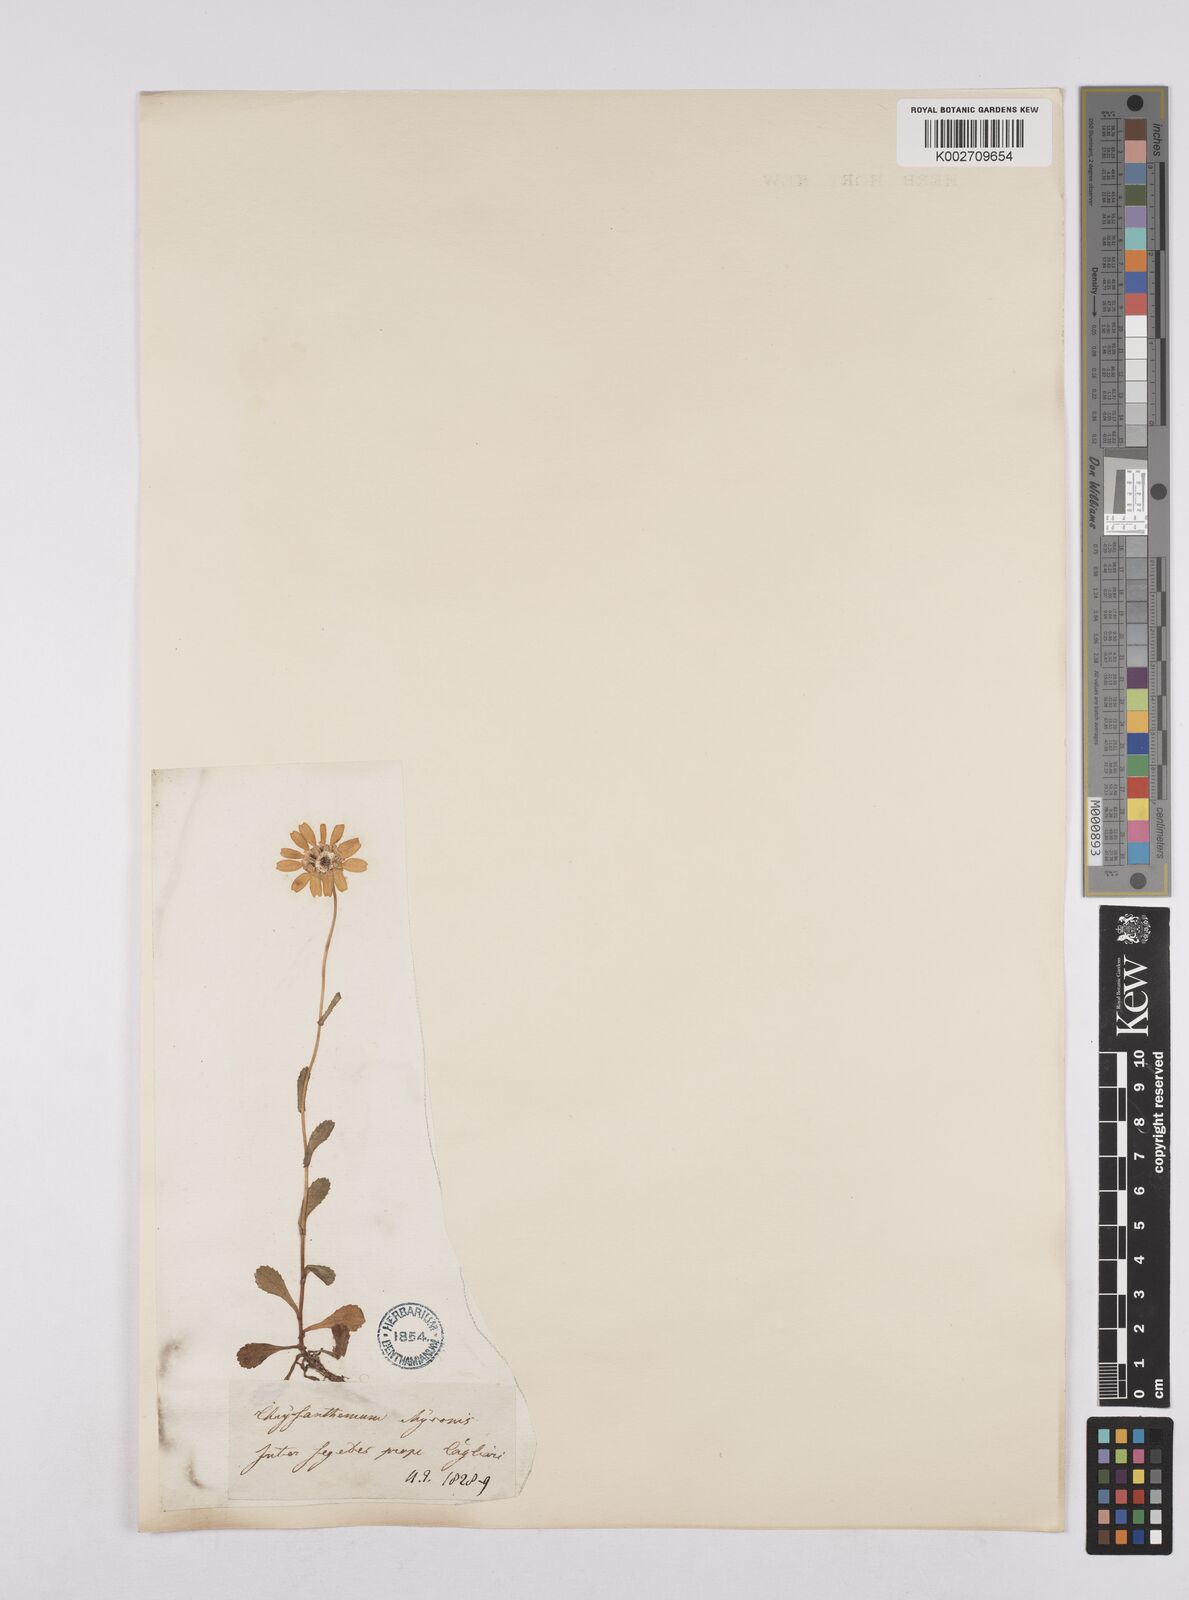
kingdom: Plantae
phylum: Tracheophyta
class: Magnoliopsida
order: Asterales
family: Asteraceae
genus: Coleostephus
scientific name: Coleostephus myconis
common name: Mediterranean marigold
